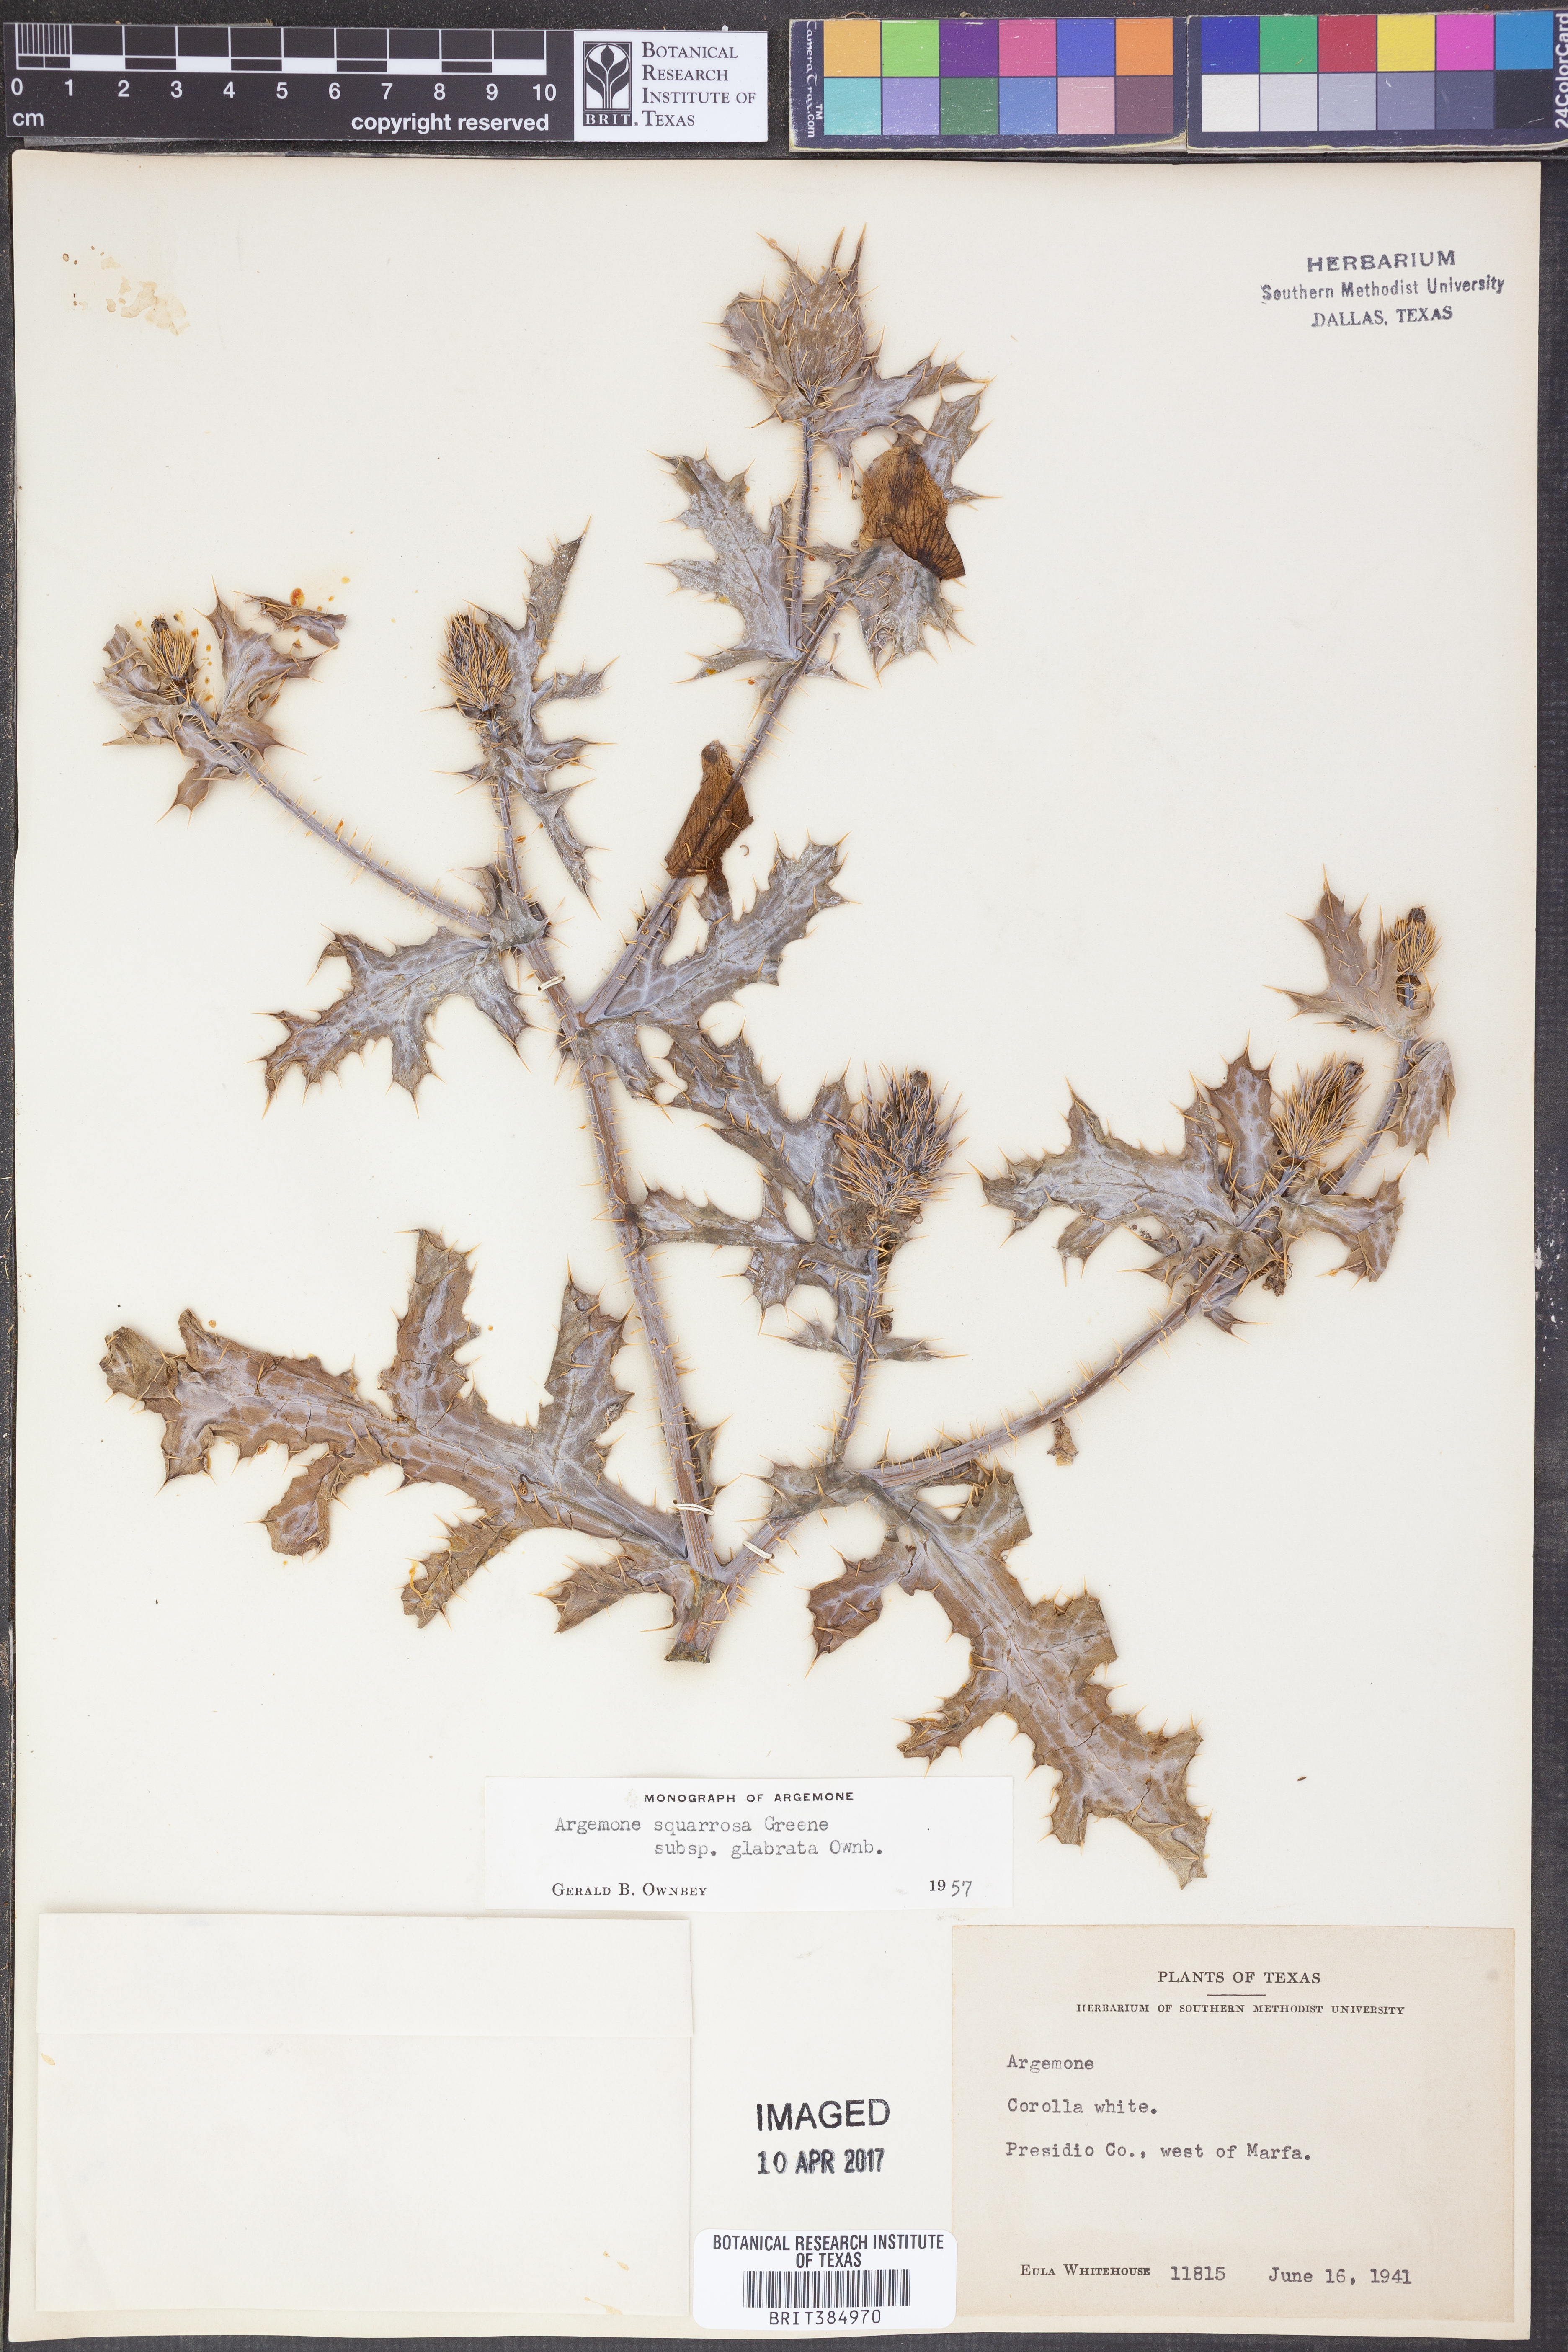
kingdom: Plantae
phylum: Tracheophyta
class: Magnoliopsida
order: Ranunculales
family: Papaveraceae
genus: Argemone
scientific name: Argemone squarrosa
